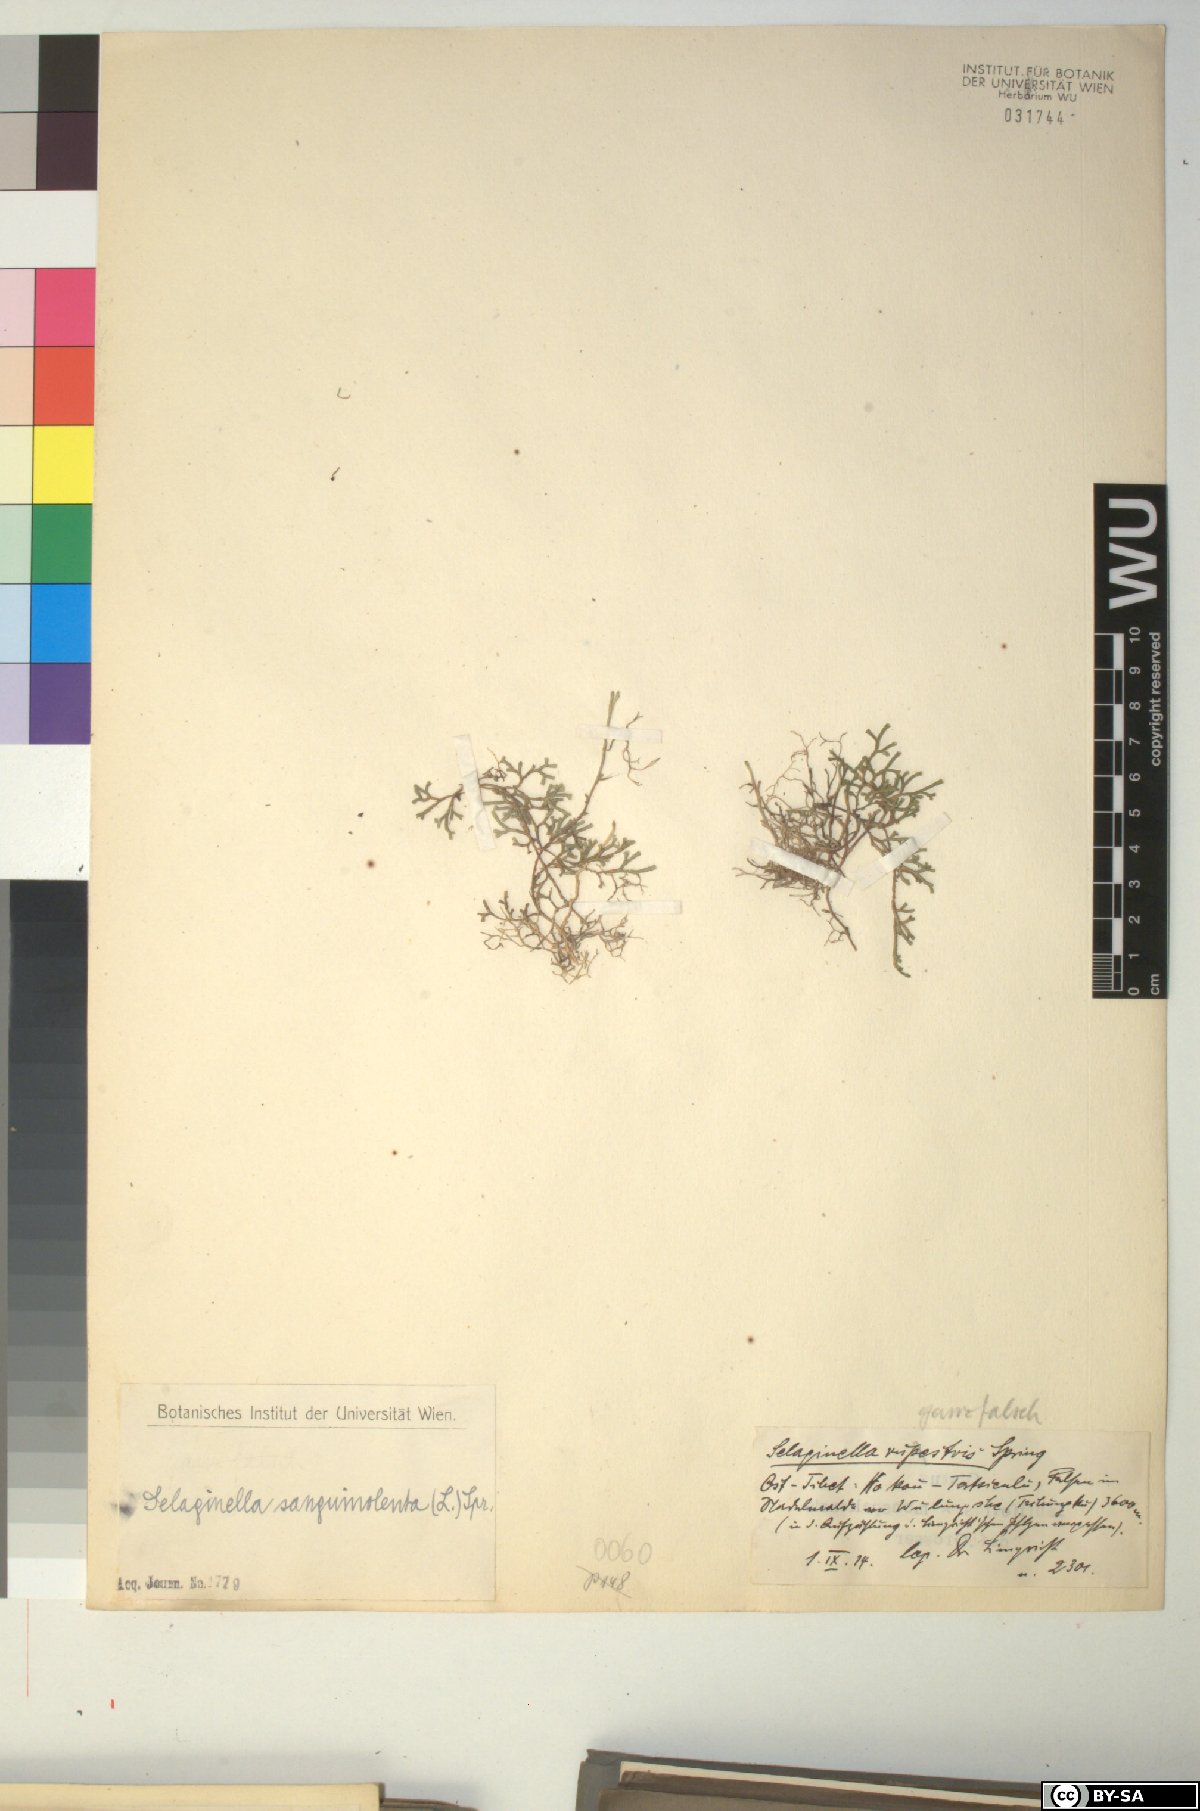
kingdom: Plantae
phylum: Tracheophyta
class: Lycopodiopsida
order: Selaginellales
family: Selaginellaceae
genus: Selaginella
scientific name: Selaginella sanguinolenta
